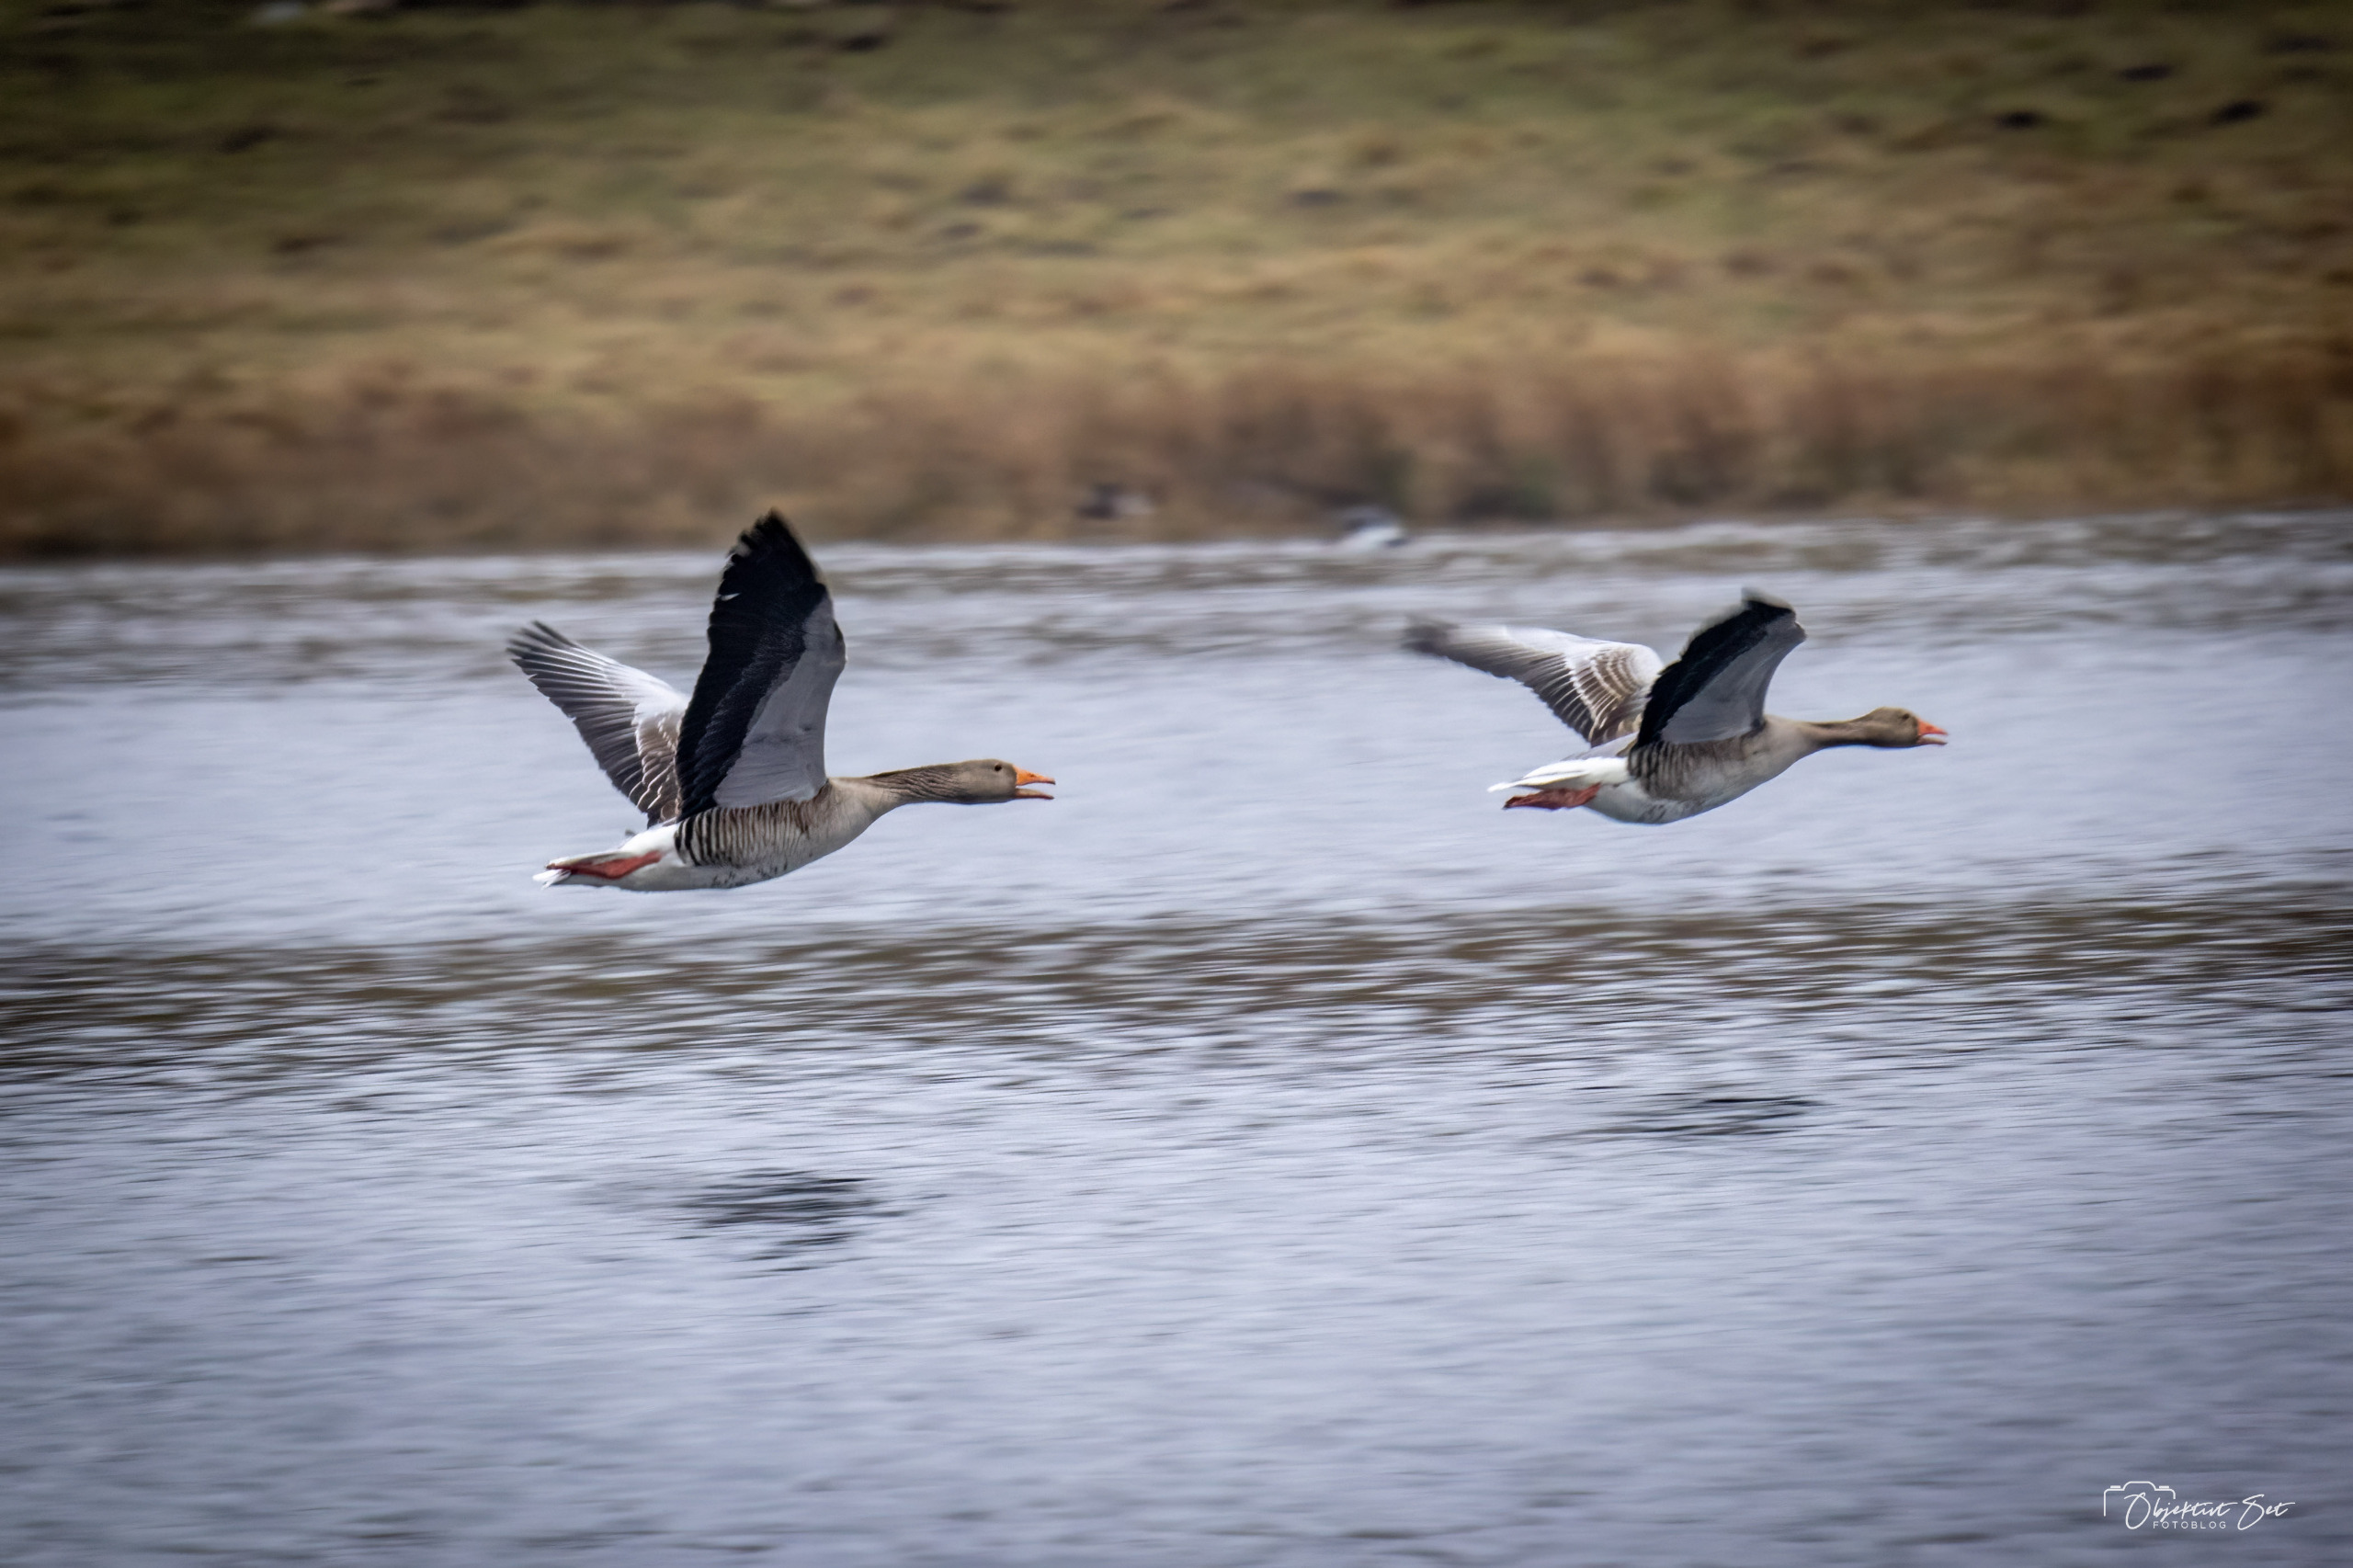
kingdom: Animalia
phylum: Chordata
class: Aves
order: Anseriformes
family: Anatidae
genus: Anser
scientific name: Anser anser
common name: Grågås
